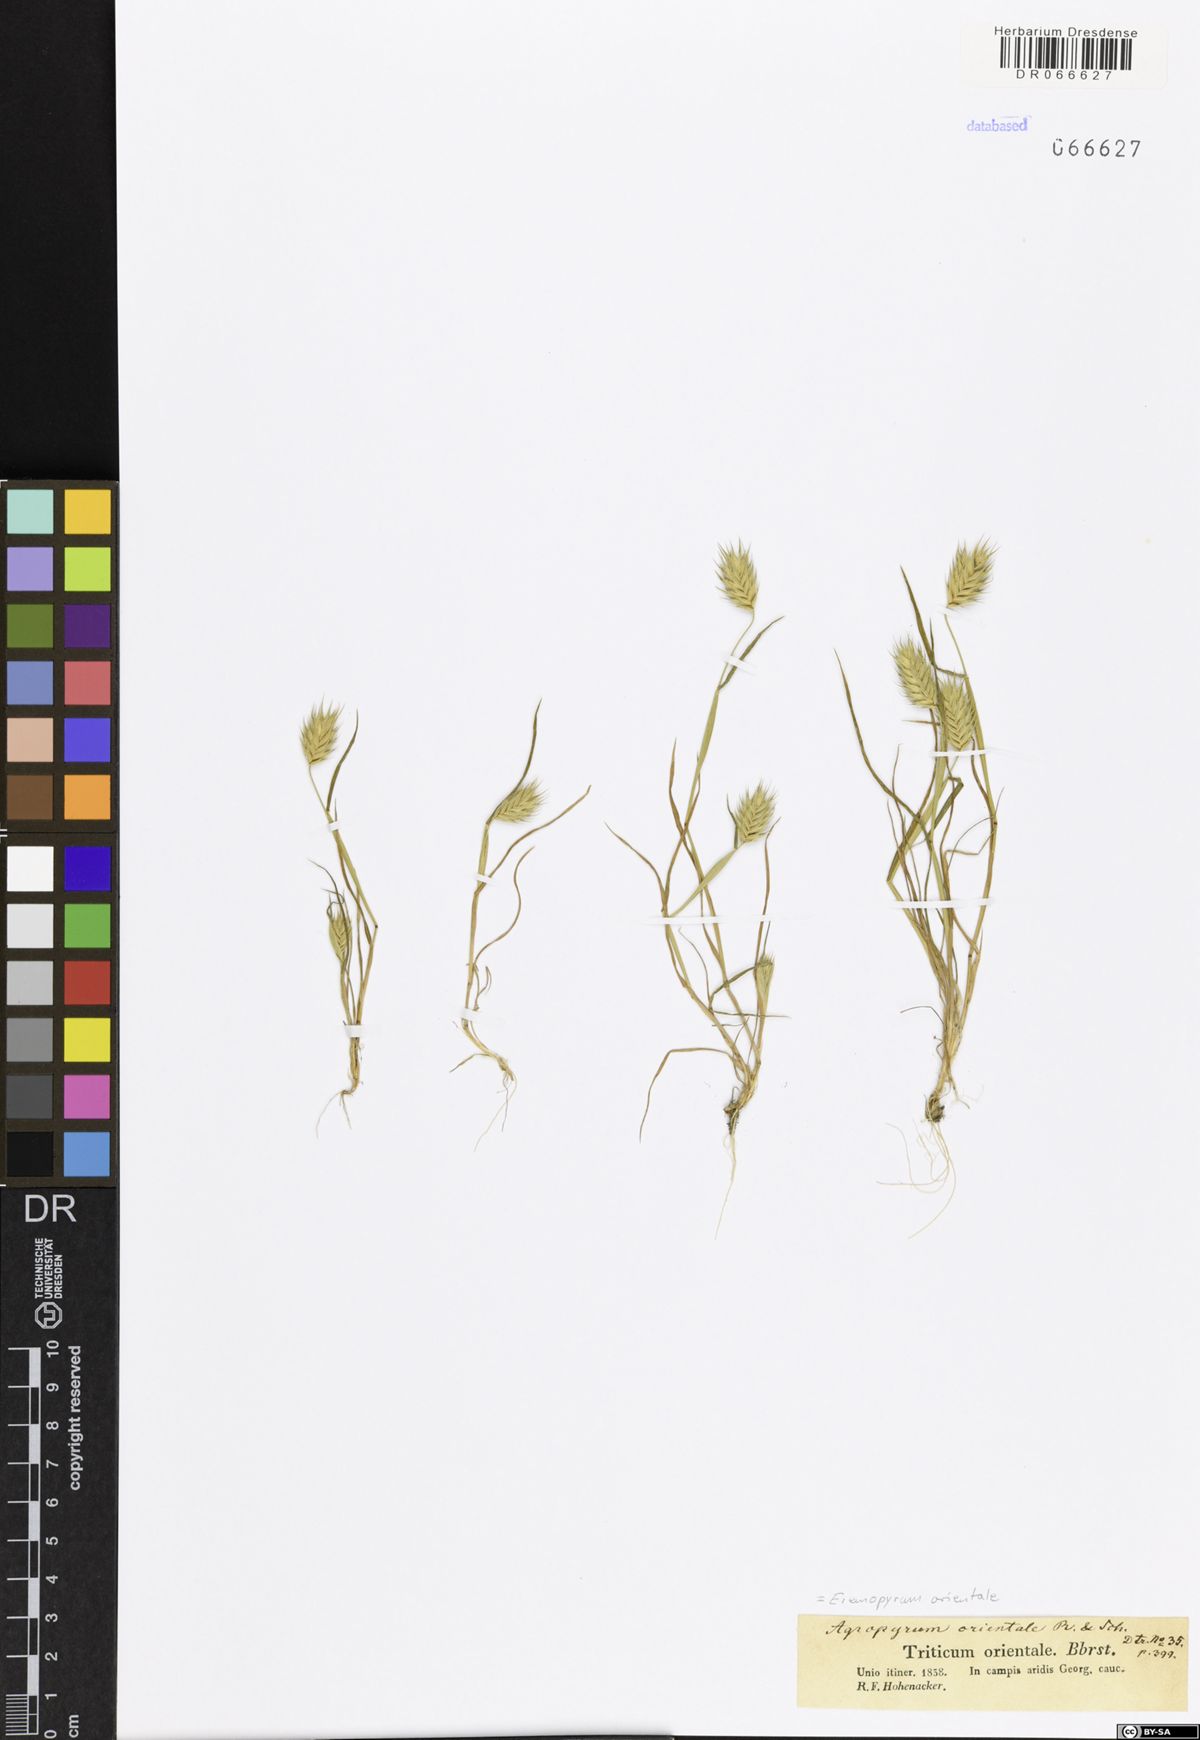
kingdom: Plantae
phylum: Tracheophyta
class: Liliopsida
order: Poales
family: Poaceae
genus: Eremopyrum
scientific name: Eremopyrum orientale
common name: Oriental false wheatgrass
